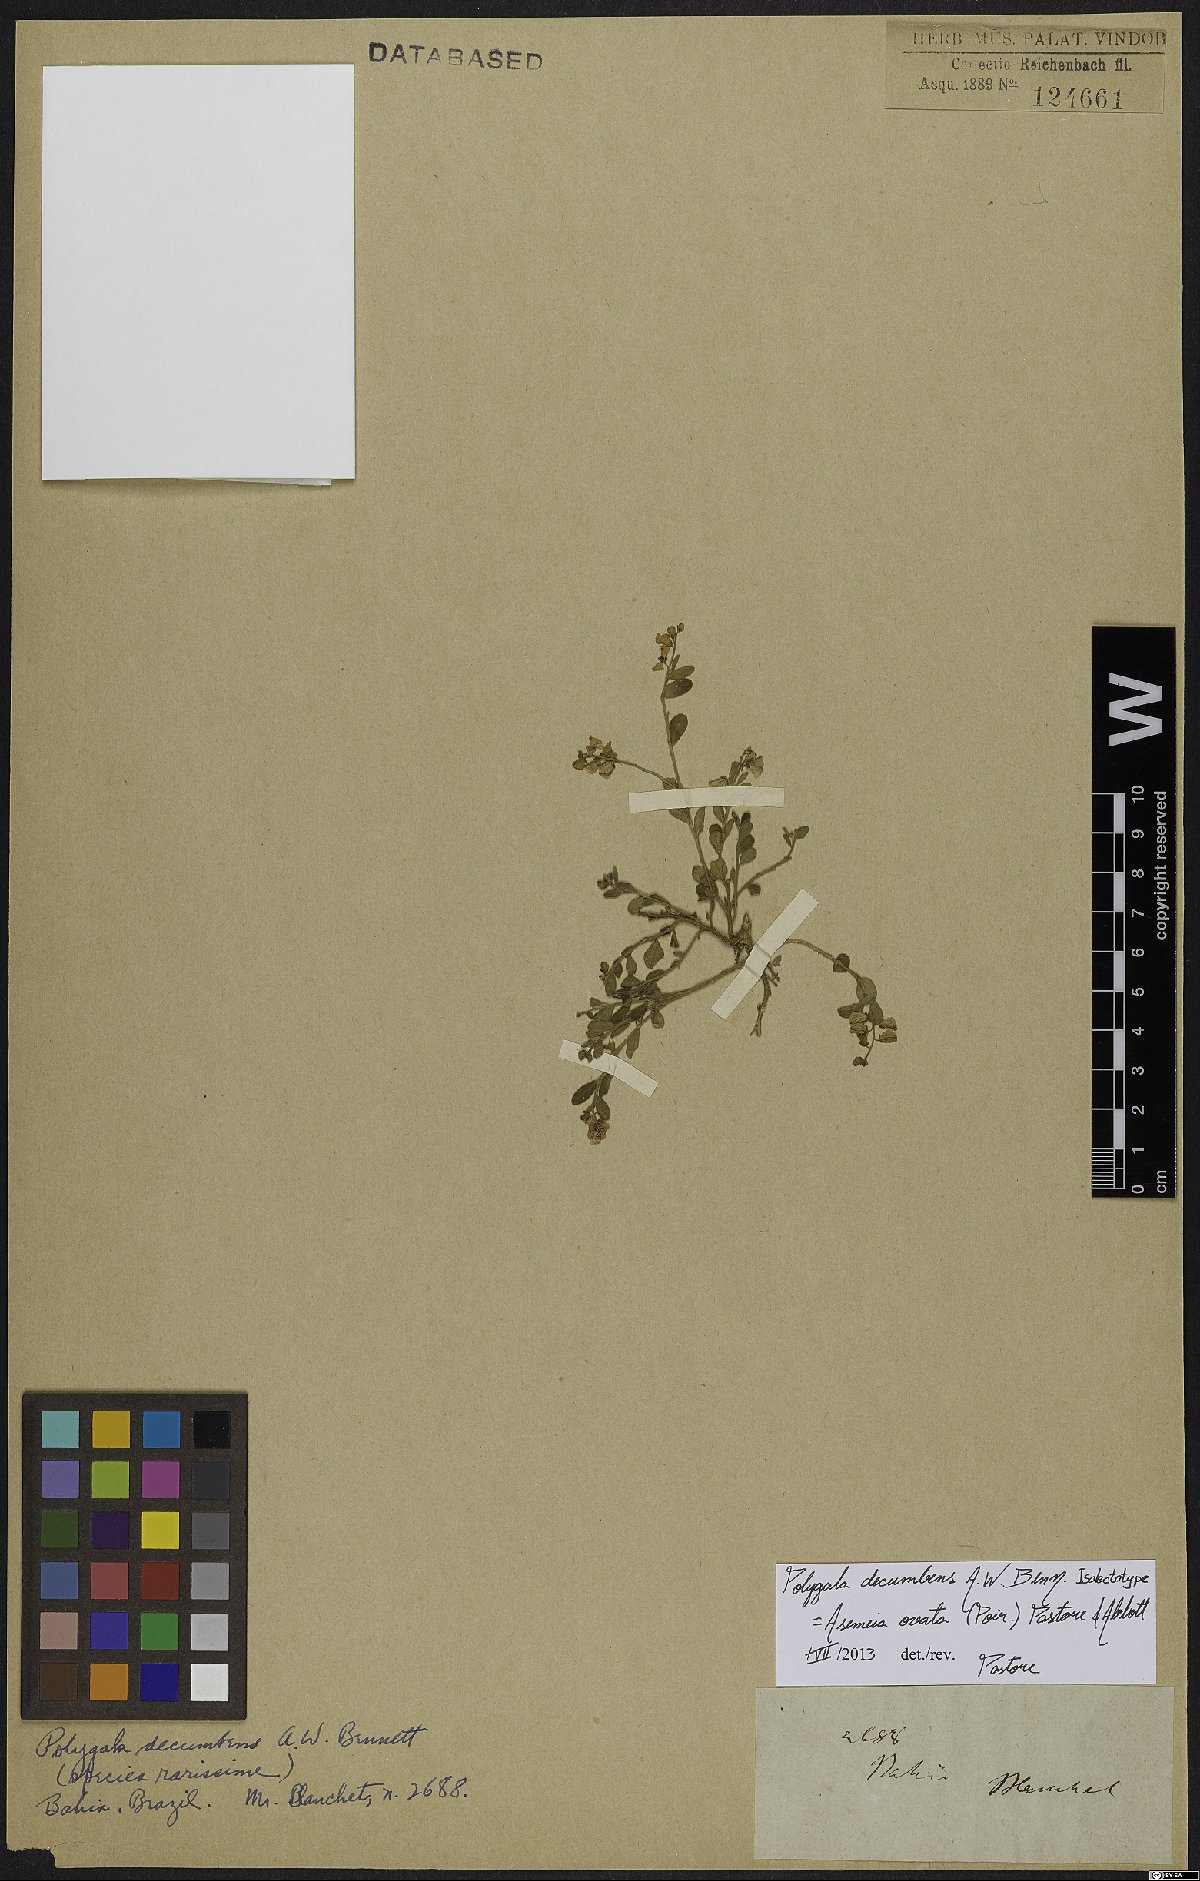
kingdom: Plantae
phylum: Tracheophyta
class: Magnoliopsida
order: Fabales
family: Polygalaceae
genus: Asemeia
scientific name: Asemeia ovata
